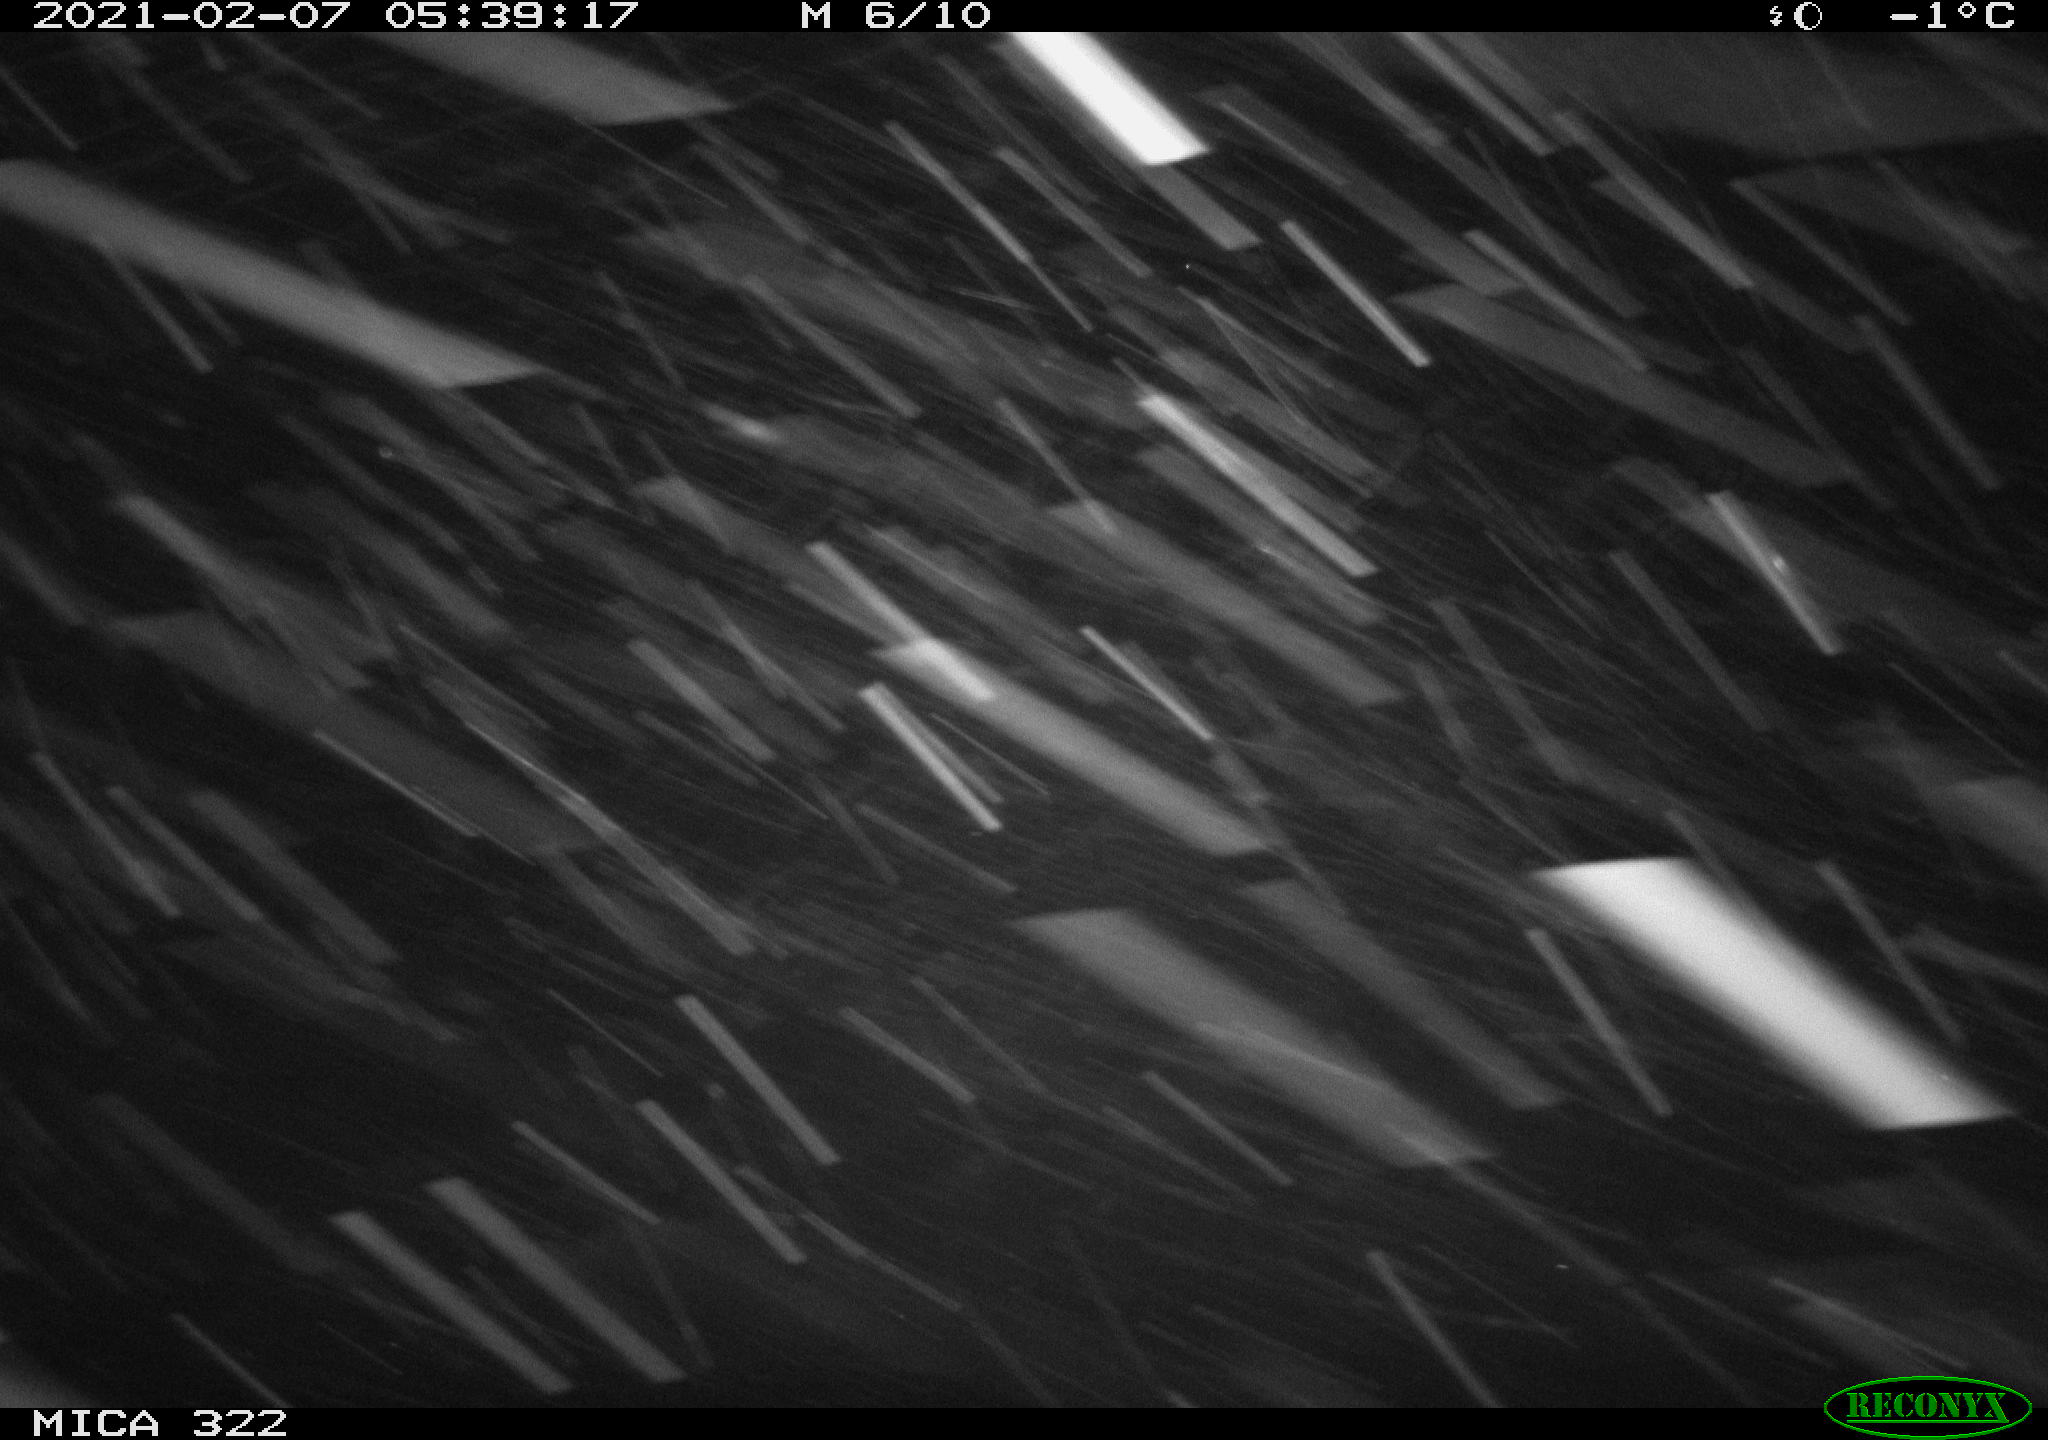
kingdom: Animalia
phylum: Chordata
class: Mammalia
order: Rodentia
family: Muridae
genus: Rattus
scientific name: Rattus norvegicus
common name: Brown rat
